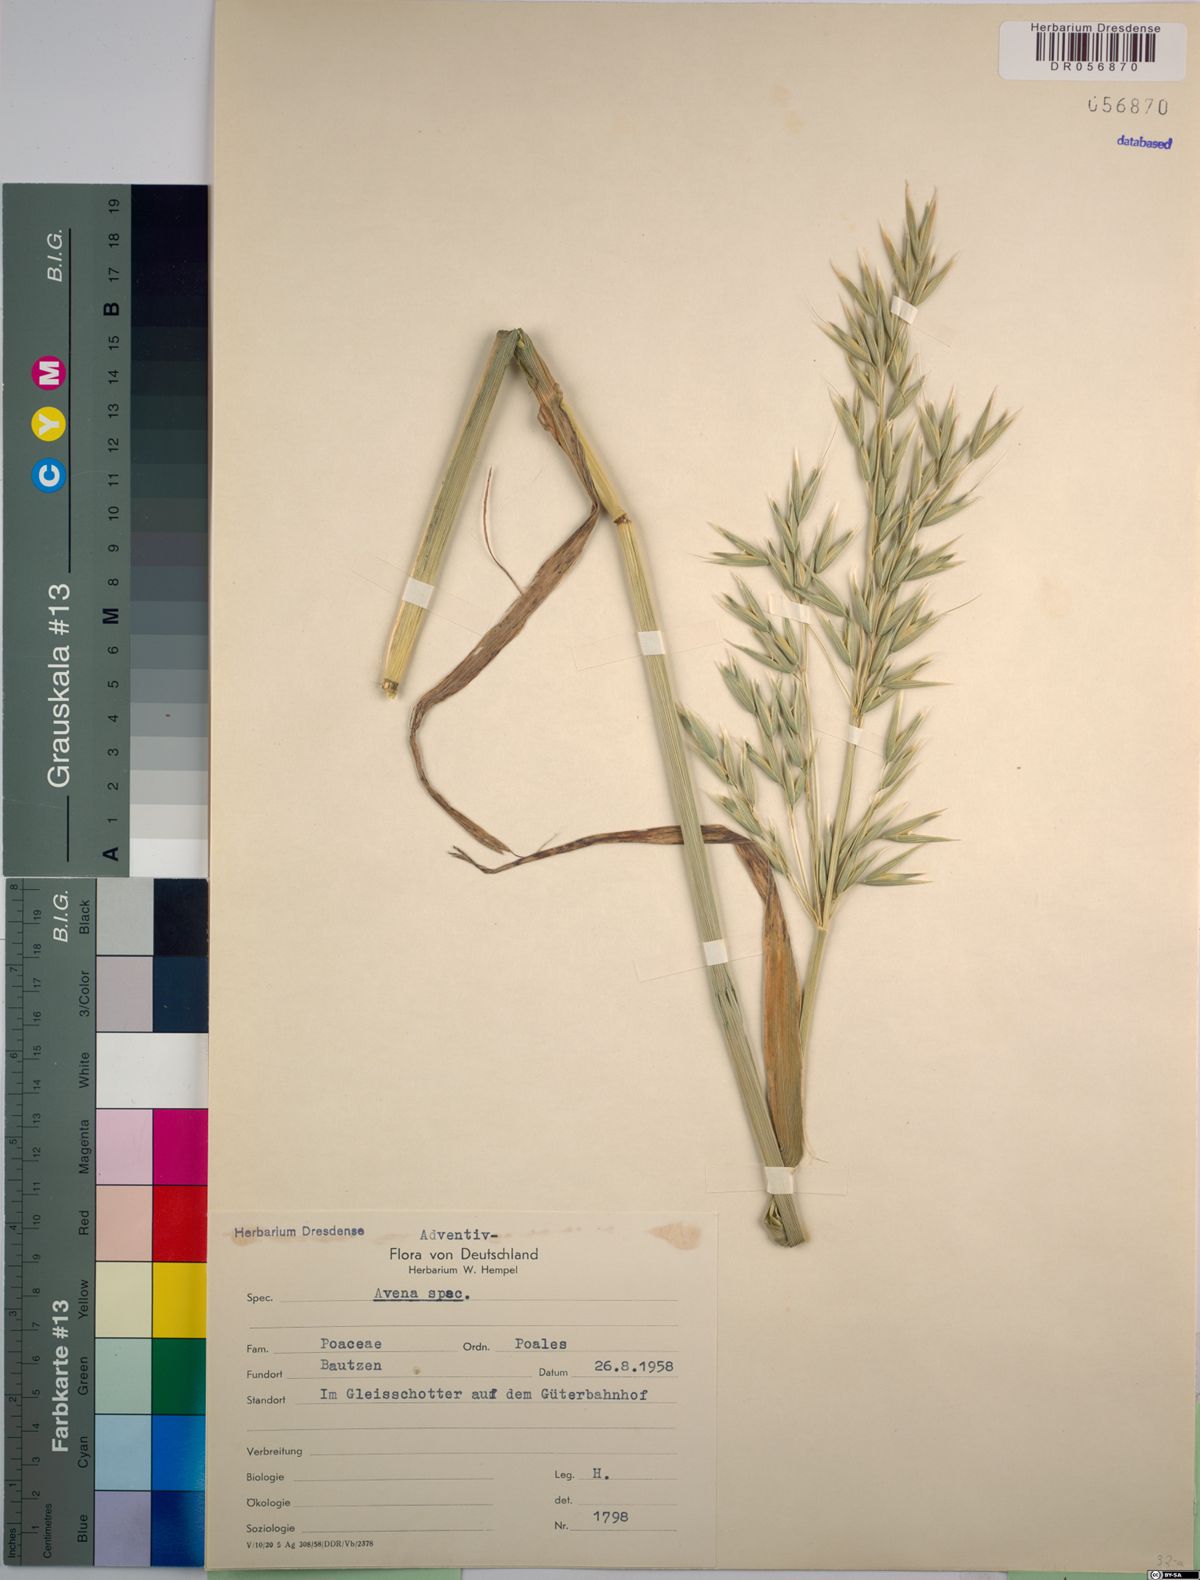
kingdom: Plantae
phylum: Tracheophyta
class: Liliopsida
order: Poales
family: Poaceae
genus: Avena
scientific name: Avena
